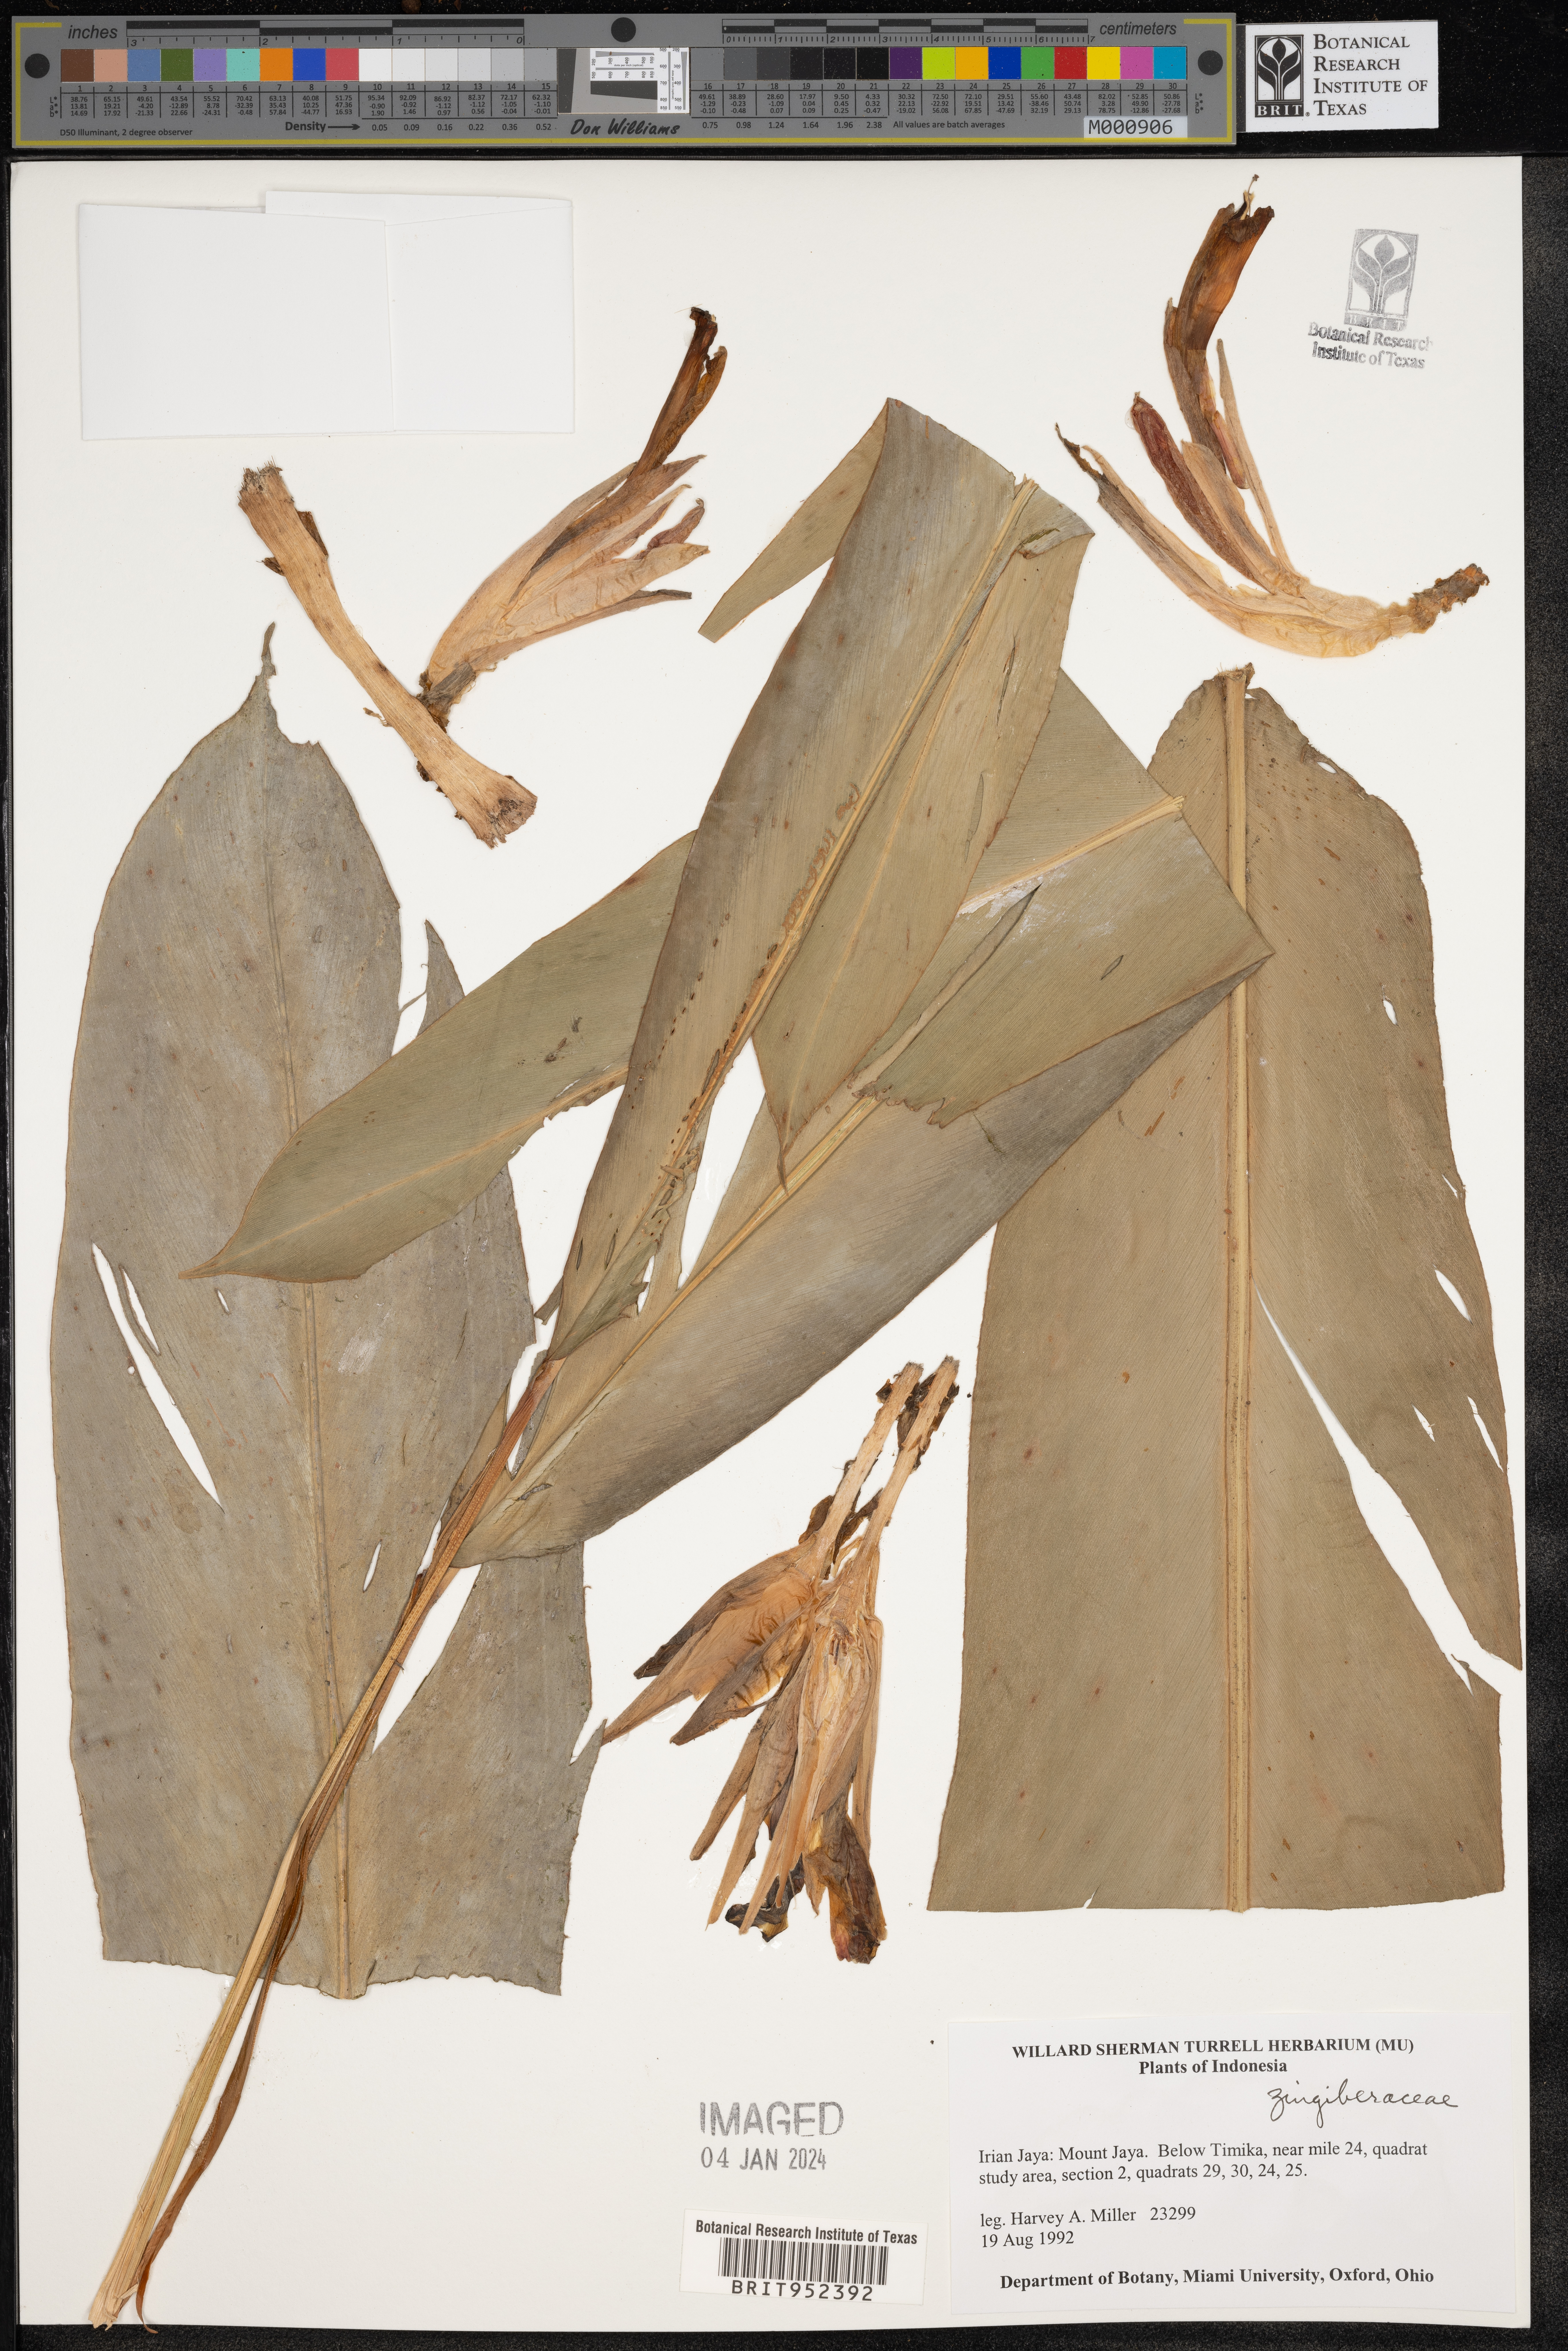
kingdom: Plantae
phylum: Tracheophyta
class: Liliopsida
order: Zingiberales
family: Zingiberaceae
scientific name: Zingiberaceae
